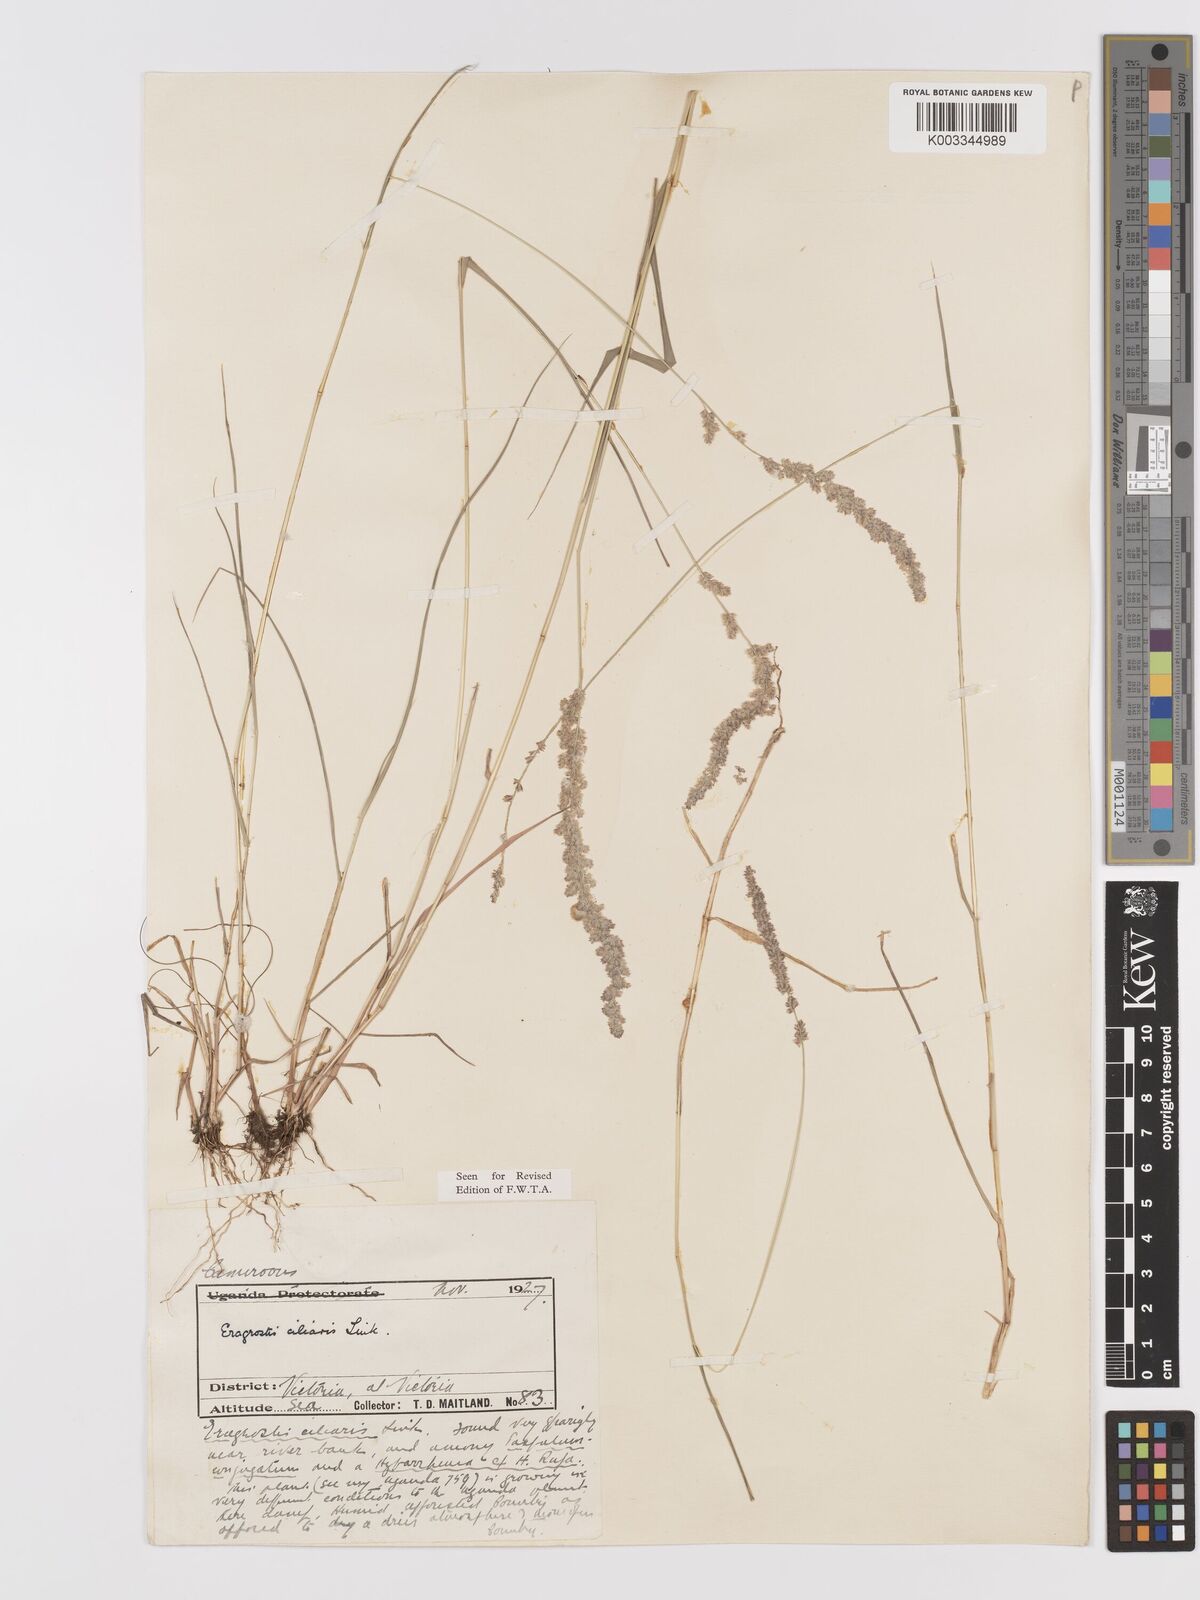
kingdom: Plantae
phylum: Tracheophyta
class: Liliopsida
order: Poales
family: Poaceae
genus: Eragrostis
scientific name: Eragrostis ciliaris
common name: Gophertail lovegrass
